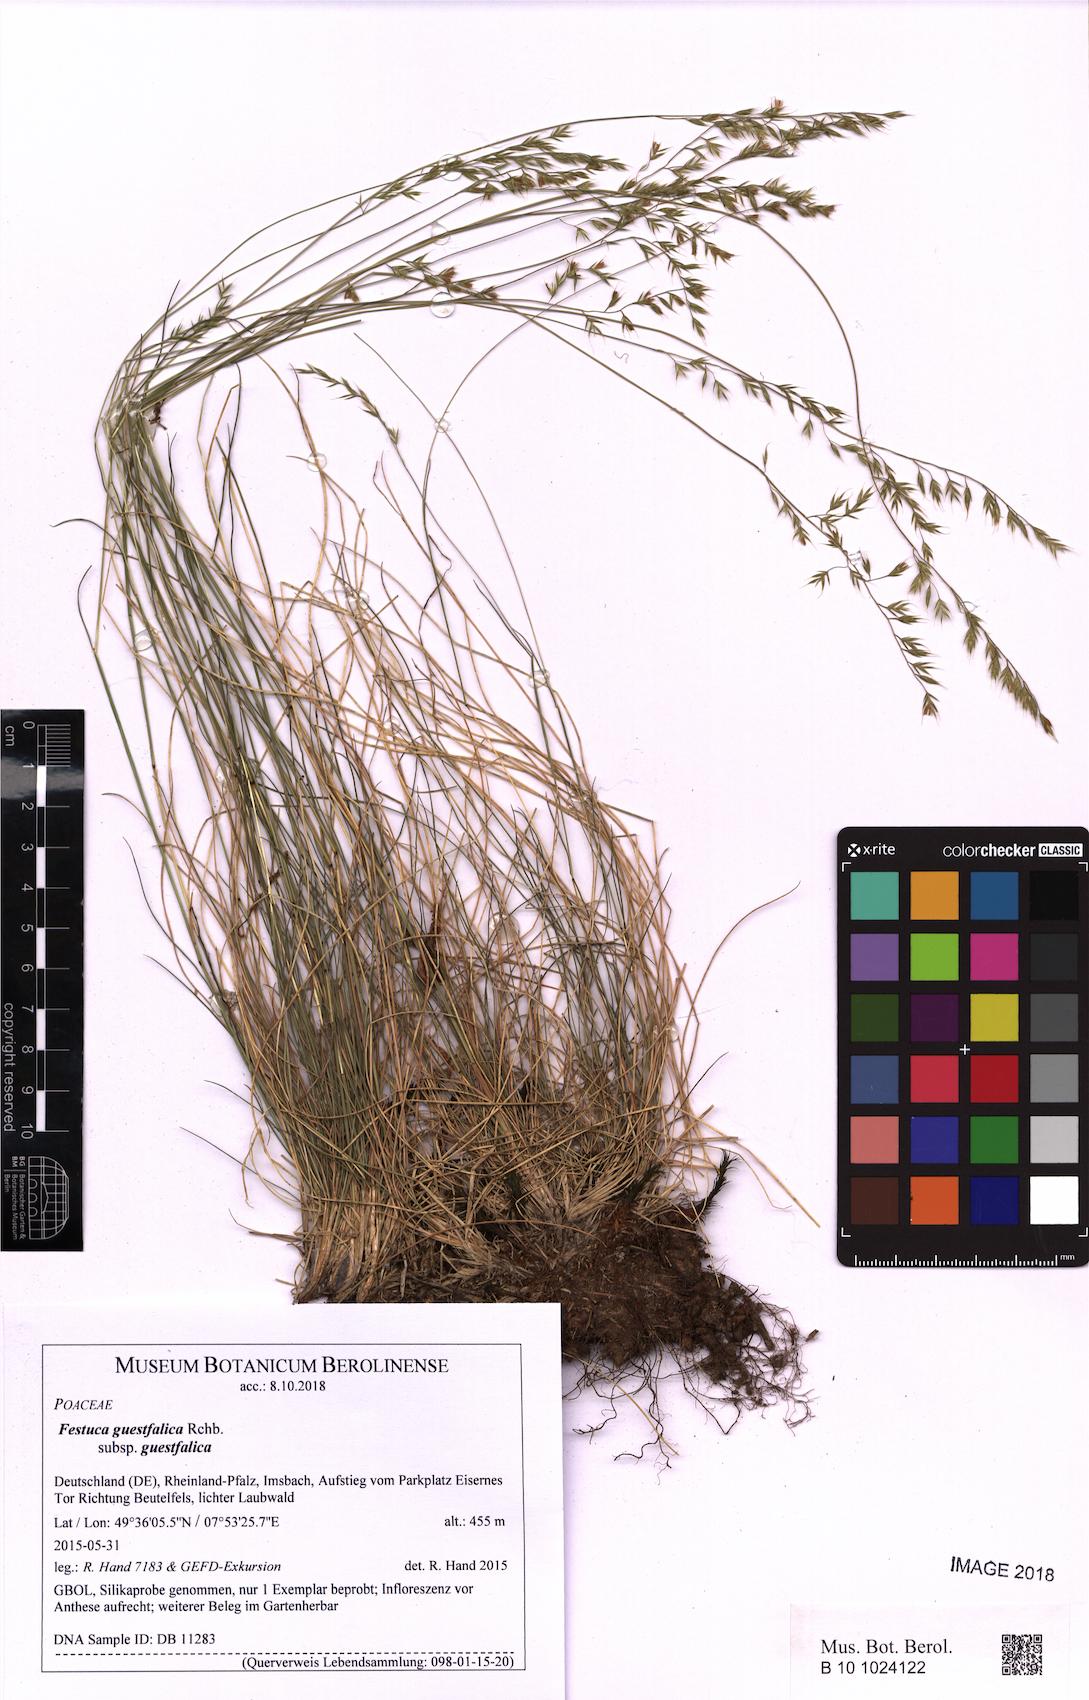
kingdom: Plantae
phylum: Tracheophyta
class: Liliopsida
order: Poales
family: Poaceae
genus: Festuca
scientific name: Festuca guestfalica
